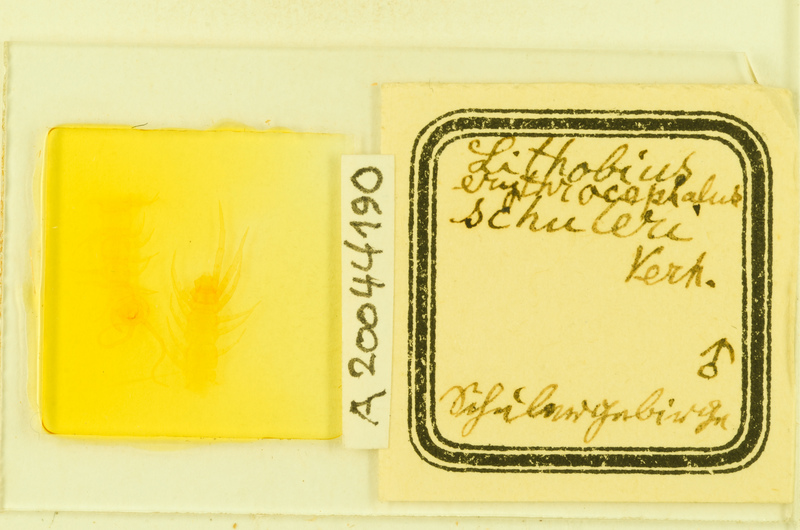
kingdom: Animalia
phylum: Arthropoda
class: Chilopoda
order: Lithobiomorpha
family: Lithobiidae
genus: Lithobius
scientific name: Lithobius erythrocephalus
